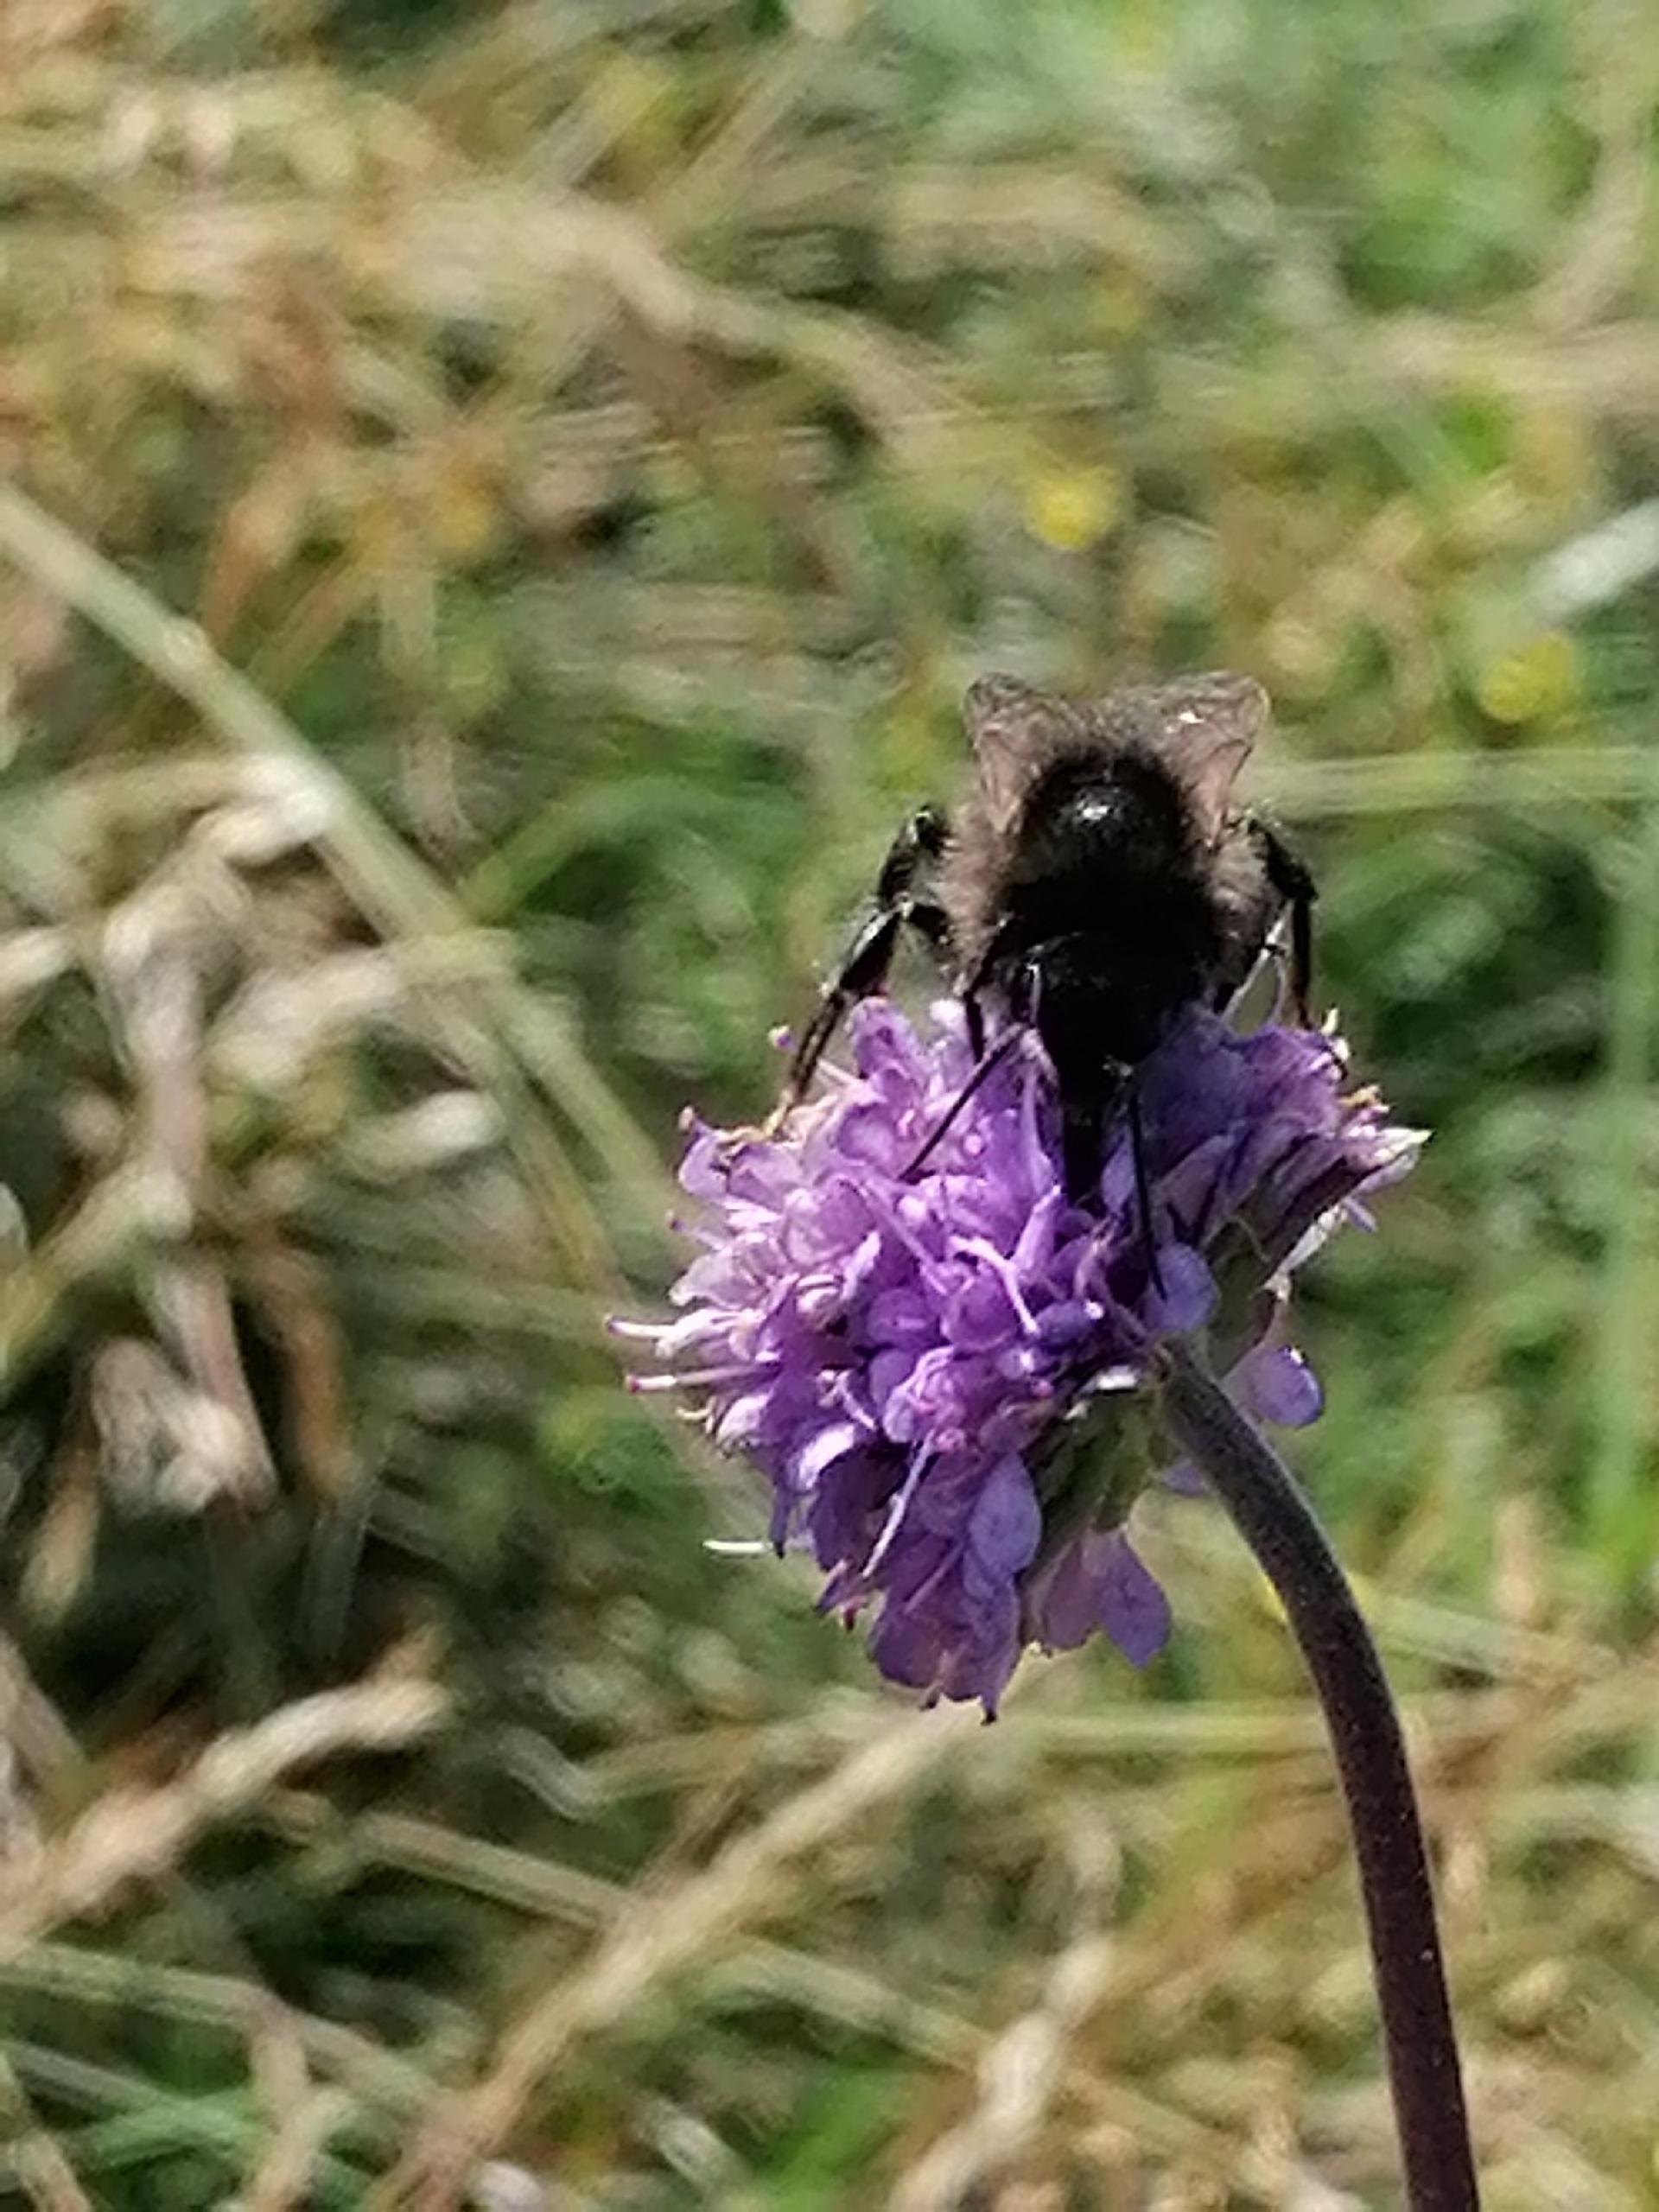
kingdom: Plantae
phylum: Tracheophyta
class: Magnoliopsida
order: Dipsacales
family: Caprifoliaceae
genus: Succisa
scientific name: Succisa pratensis
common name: Djævelsbid
